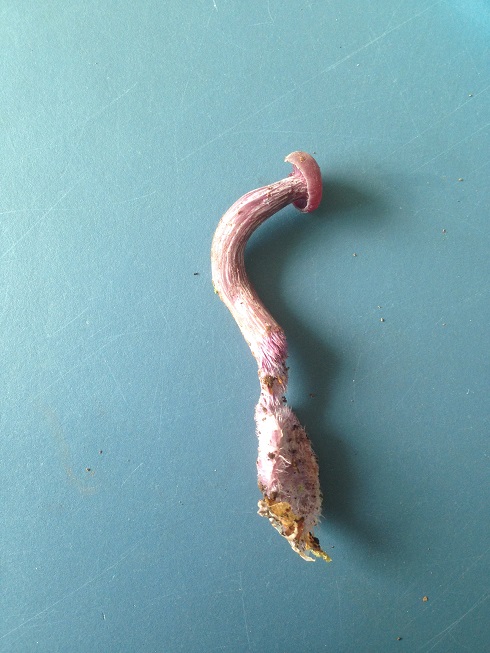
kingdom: Fungi
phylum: Basidiomycota
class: Agaricomycetes
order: Agaricales
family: Hydnangiaceae
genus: Laccaria
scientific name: Laccaria amethystina
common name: violet ametysthat
